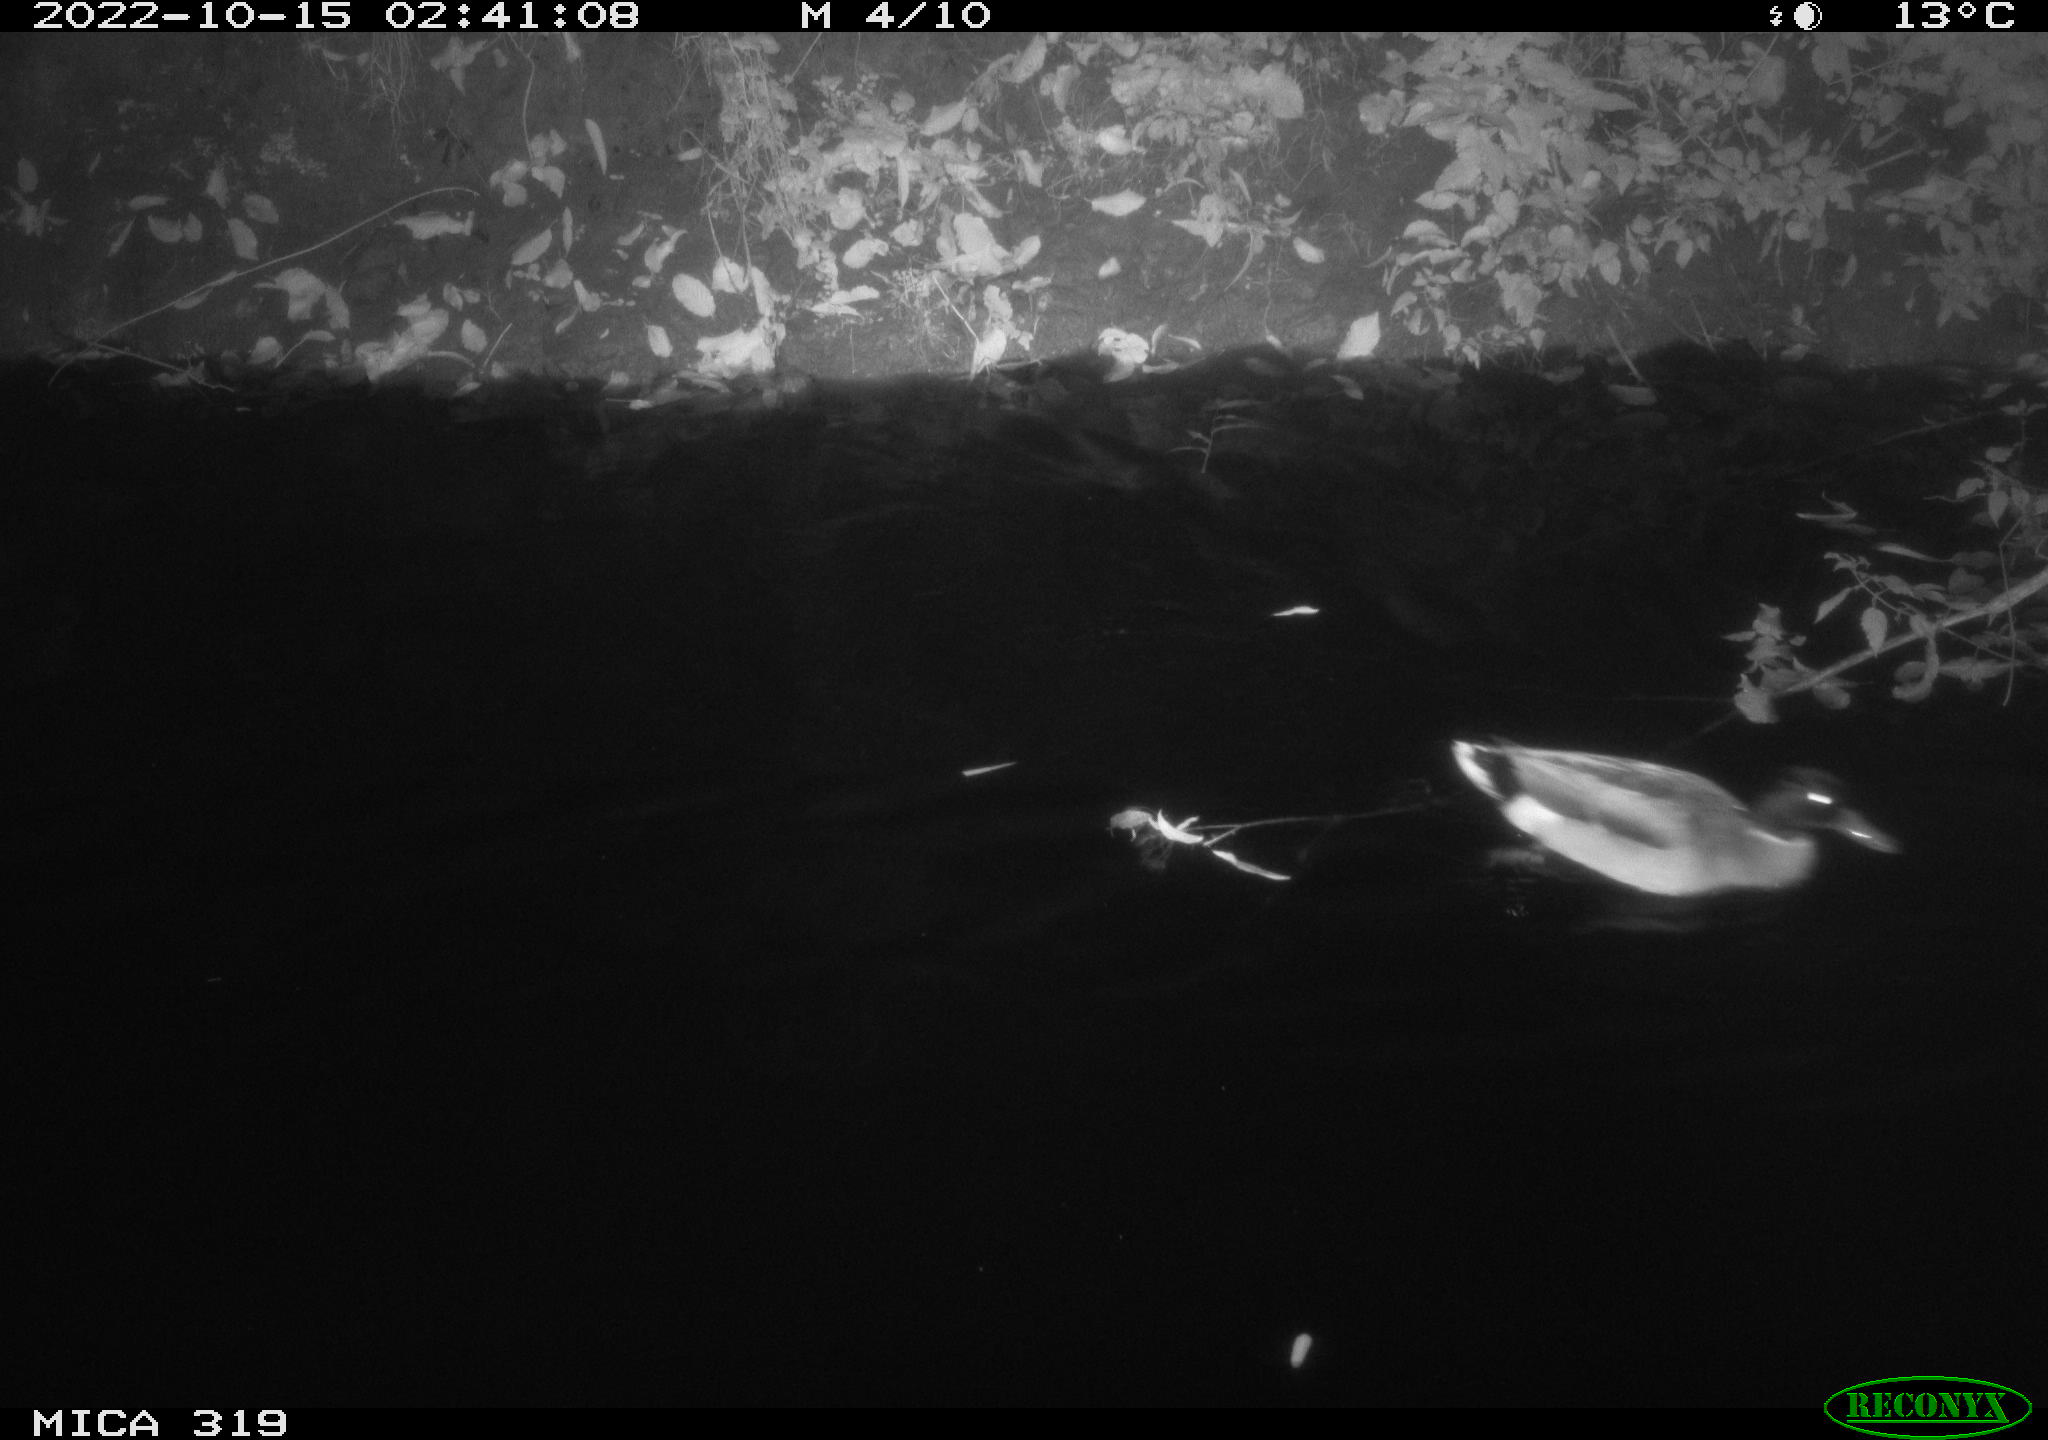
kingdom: Animalia
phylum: Chordata
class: Aves
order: Anseriformes
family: Anatidae
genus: Anas
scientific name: Anas
